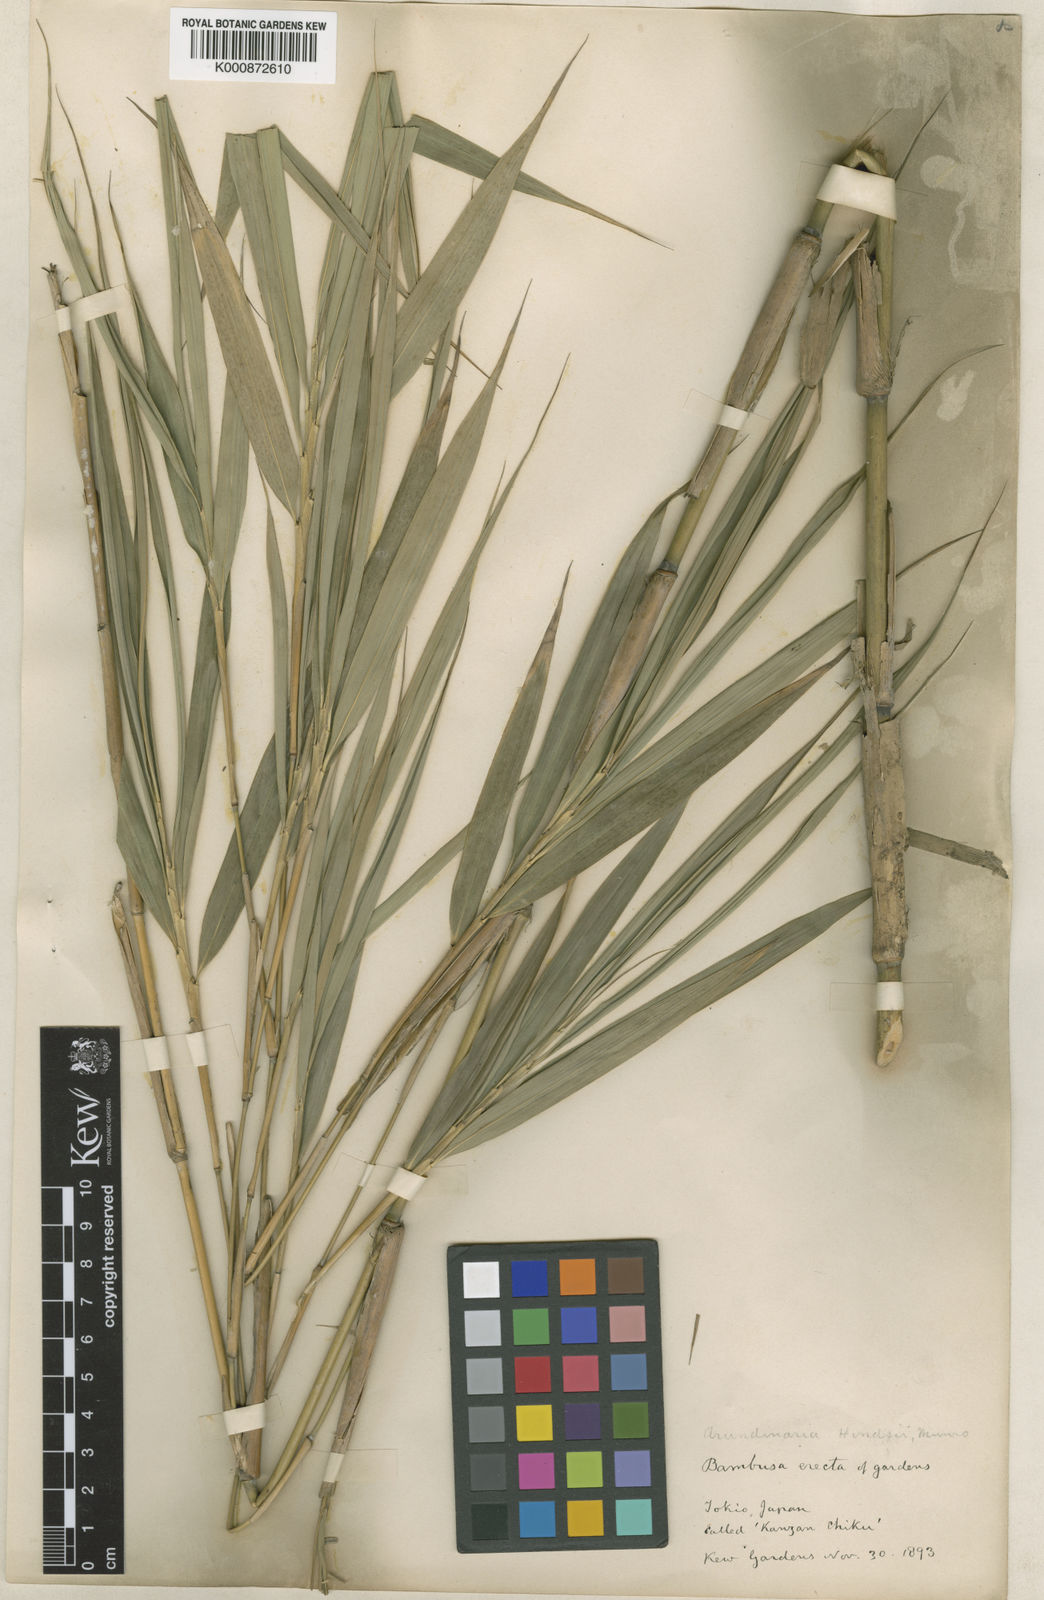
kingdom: Plantae
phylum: Tracheophyta
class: Liliopsida
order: Poales
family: Poaceae
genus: Pseudosasa
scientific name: Pseudosasa hindsii
